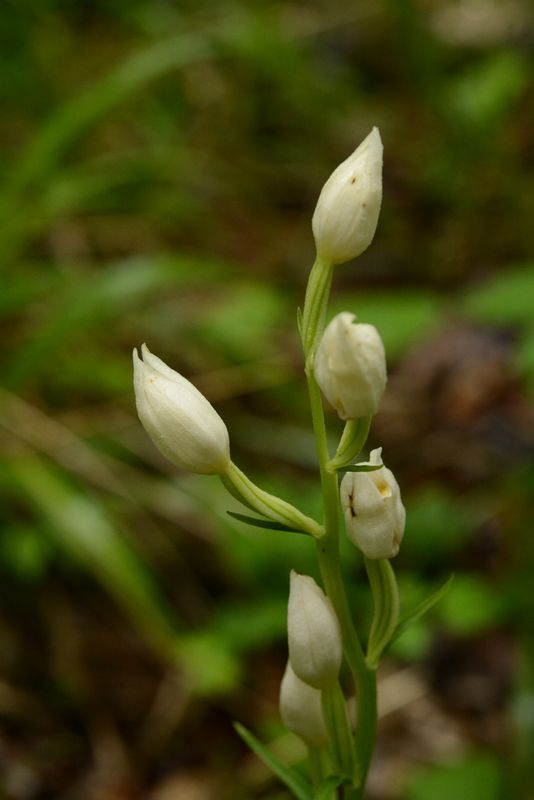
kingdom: Plantae
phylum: Tracheophyta
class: Liliopsida
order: Asparagales
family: Orchidaceae
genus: Cephalanthera
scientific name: Cephalanthera damasonium
